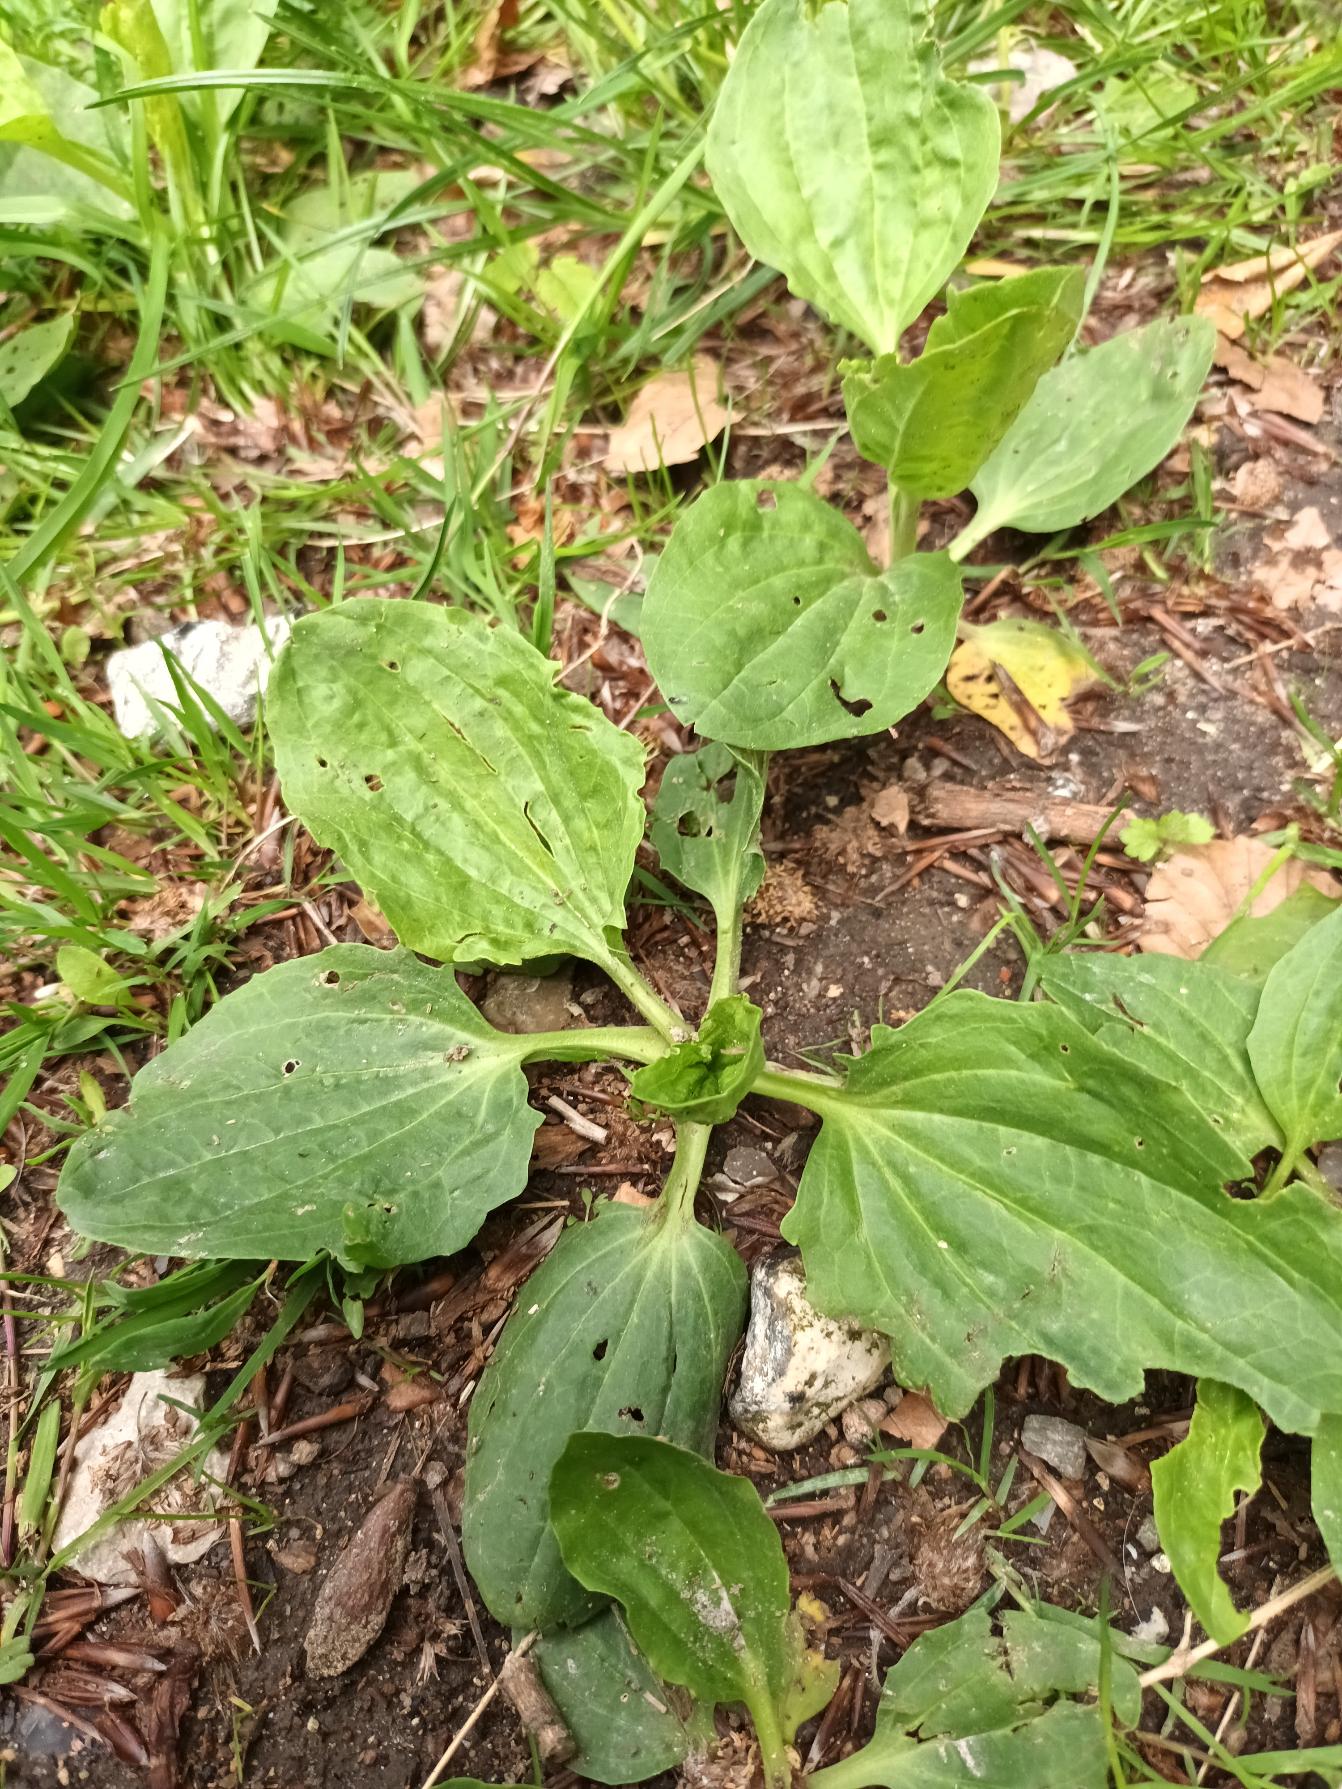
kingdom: Plantae
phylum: Tracheophyta
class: Magnoliopsida
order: Lamiales
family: Plantaginaceae
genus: Plantago
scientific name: Plantago uliginosa
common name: Ager-vejbred
